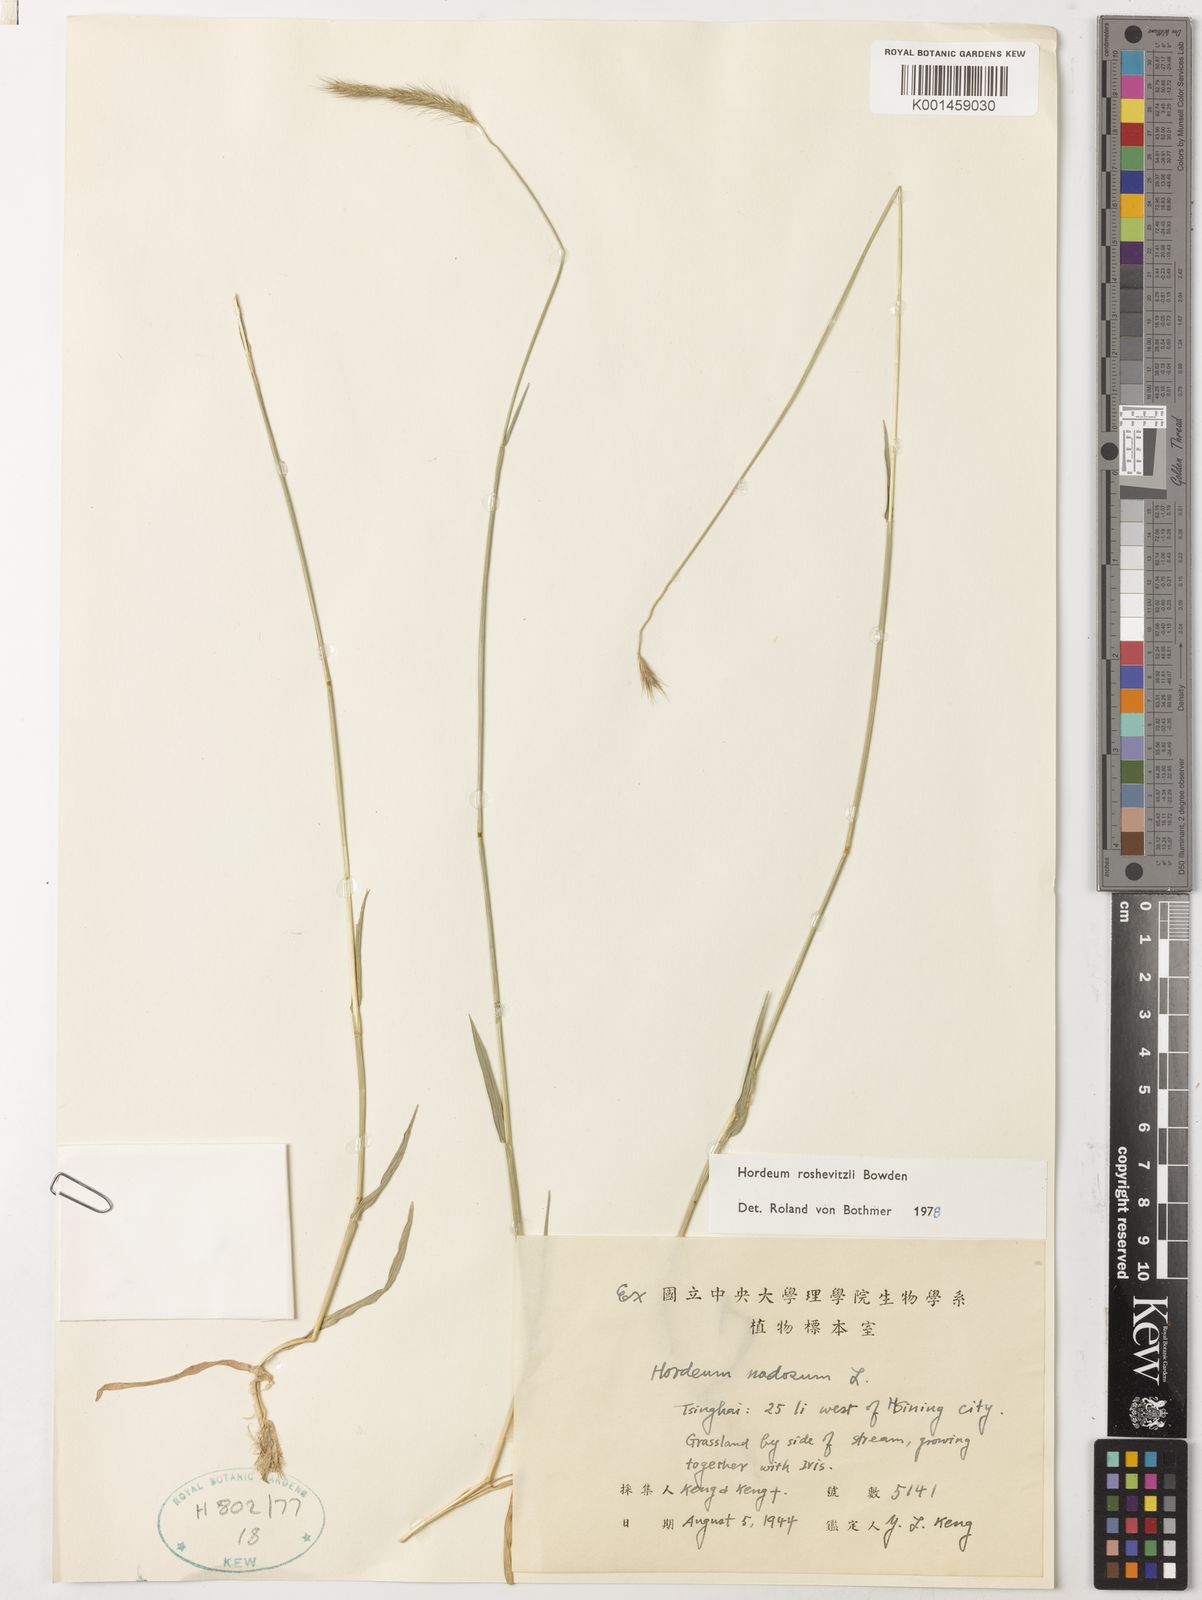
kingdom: Plantae
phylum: Tracheophyta
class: Liliopsida
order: Poales
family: Poaceae
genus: Hordeum
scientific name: Hordeum roshevitzii
